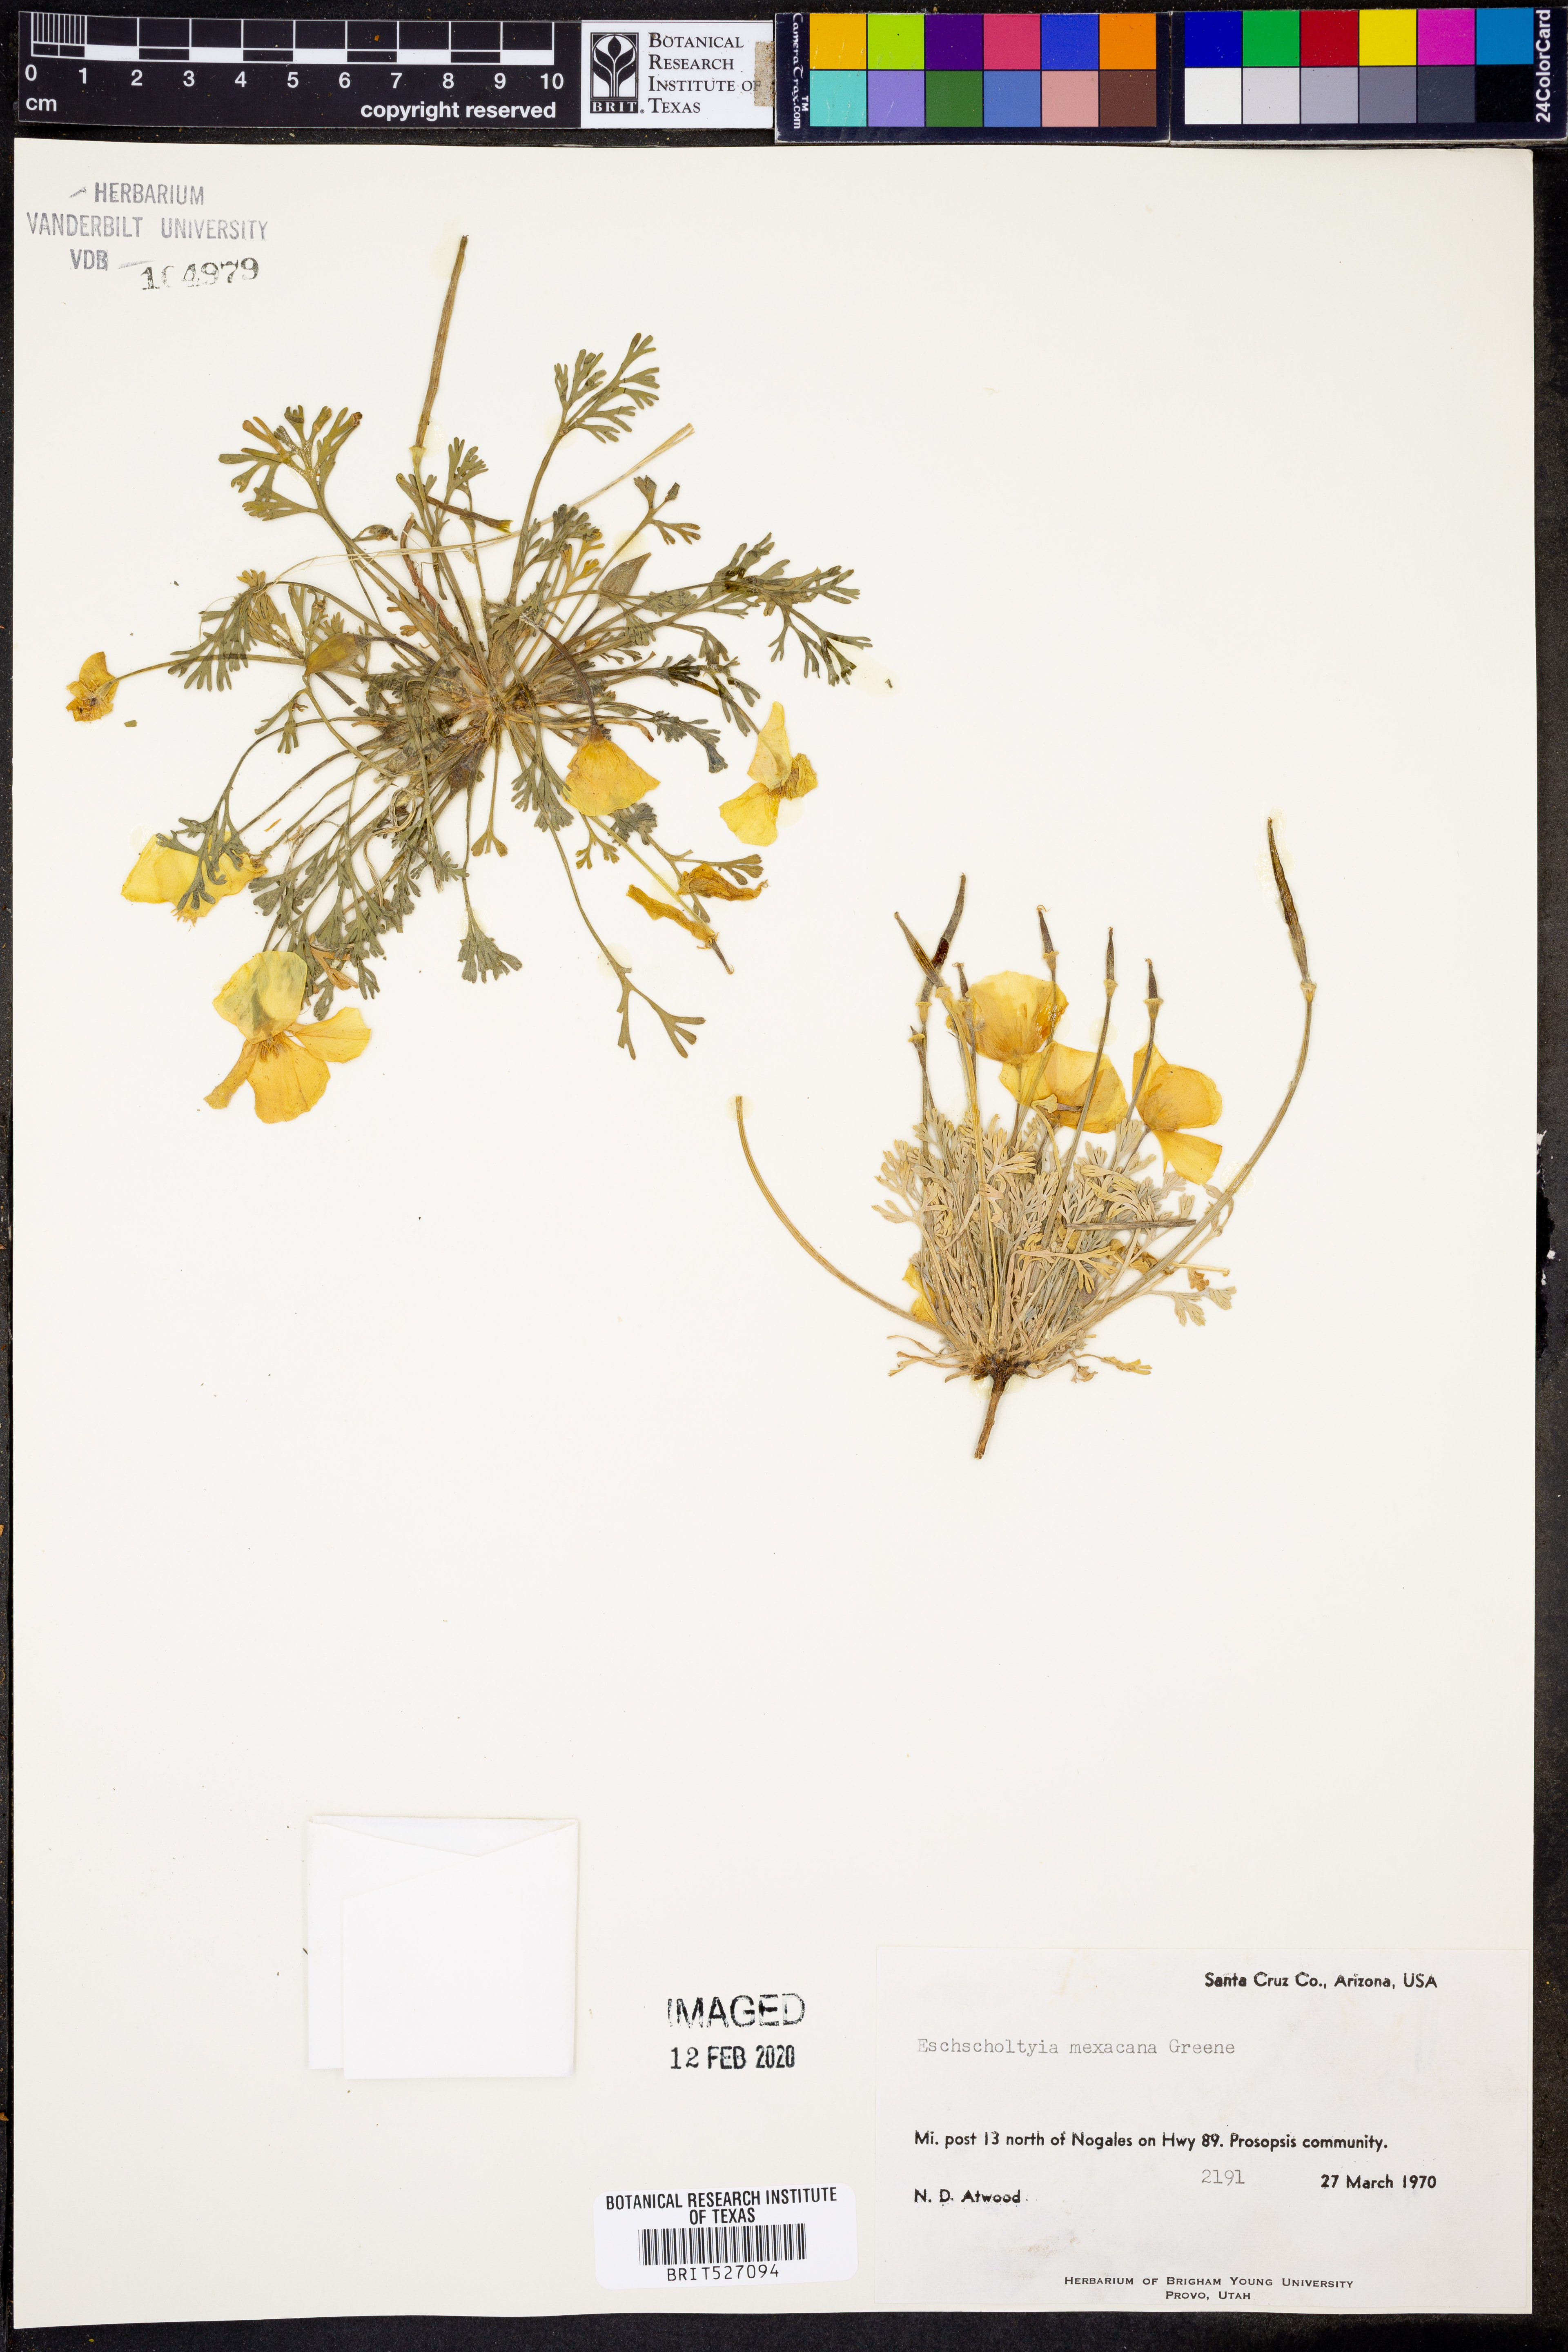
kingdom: Plantae
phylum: Tracheophyta
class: Magnoliopsida
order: Ranunculales
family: Papaveraceae
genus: Eschscholzia
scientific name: Eschscholzia californica
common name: California poppy
